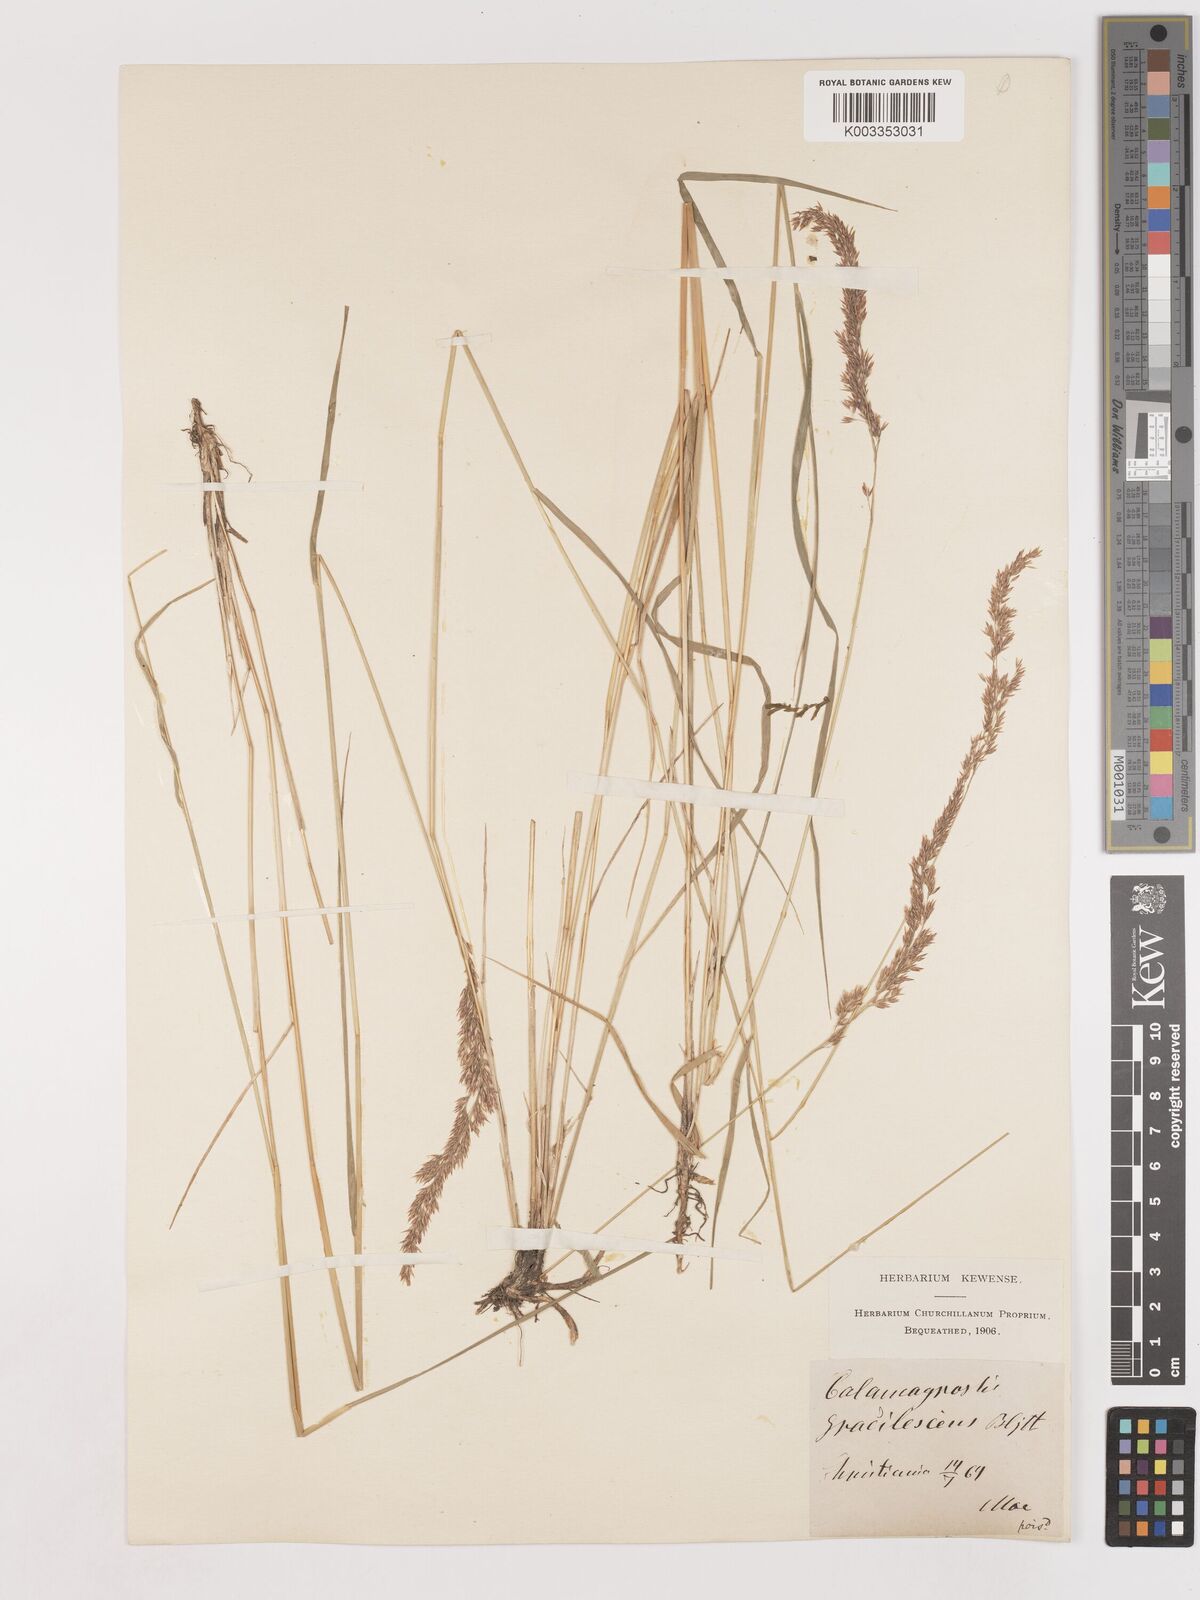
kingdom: Plantae
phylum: Tracheophyta
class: Liliopsida
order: Poales
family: Poaceae
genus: Calamagrostis
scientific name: Calamagrostis canescens
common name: Purple small-reed
